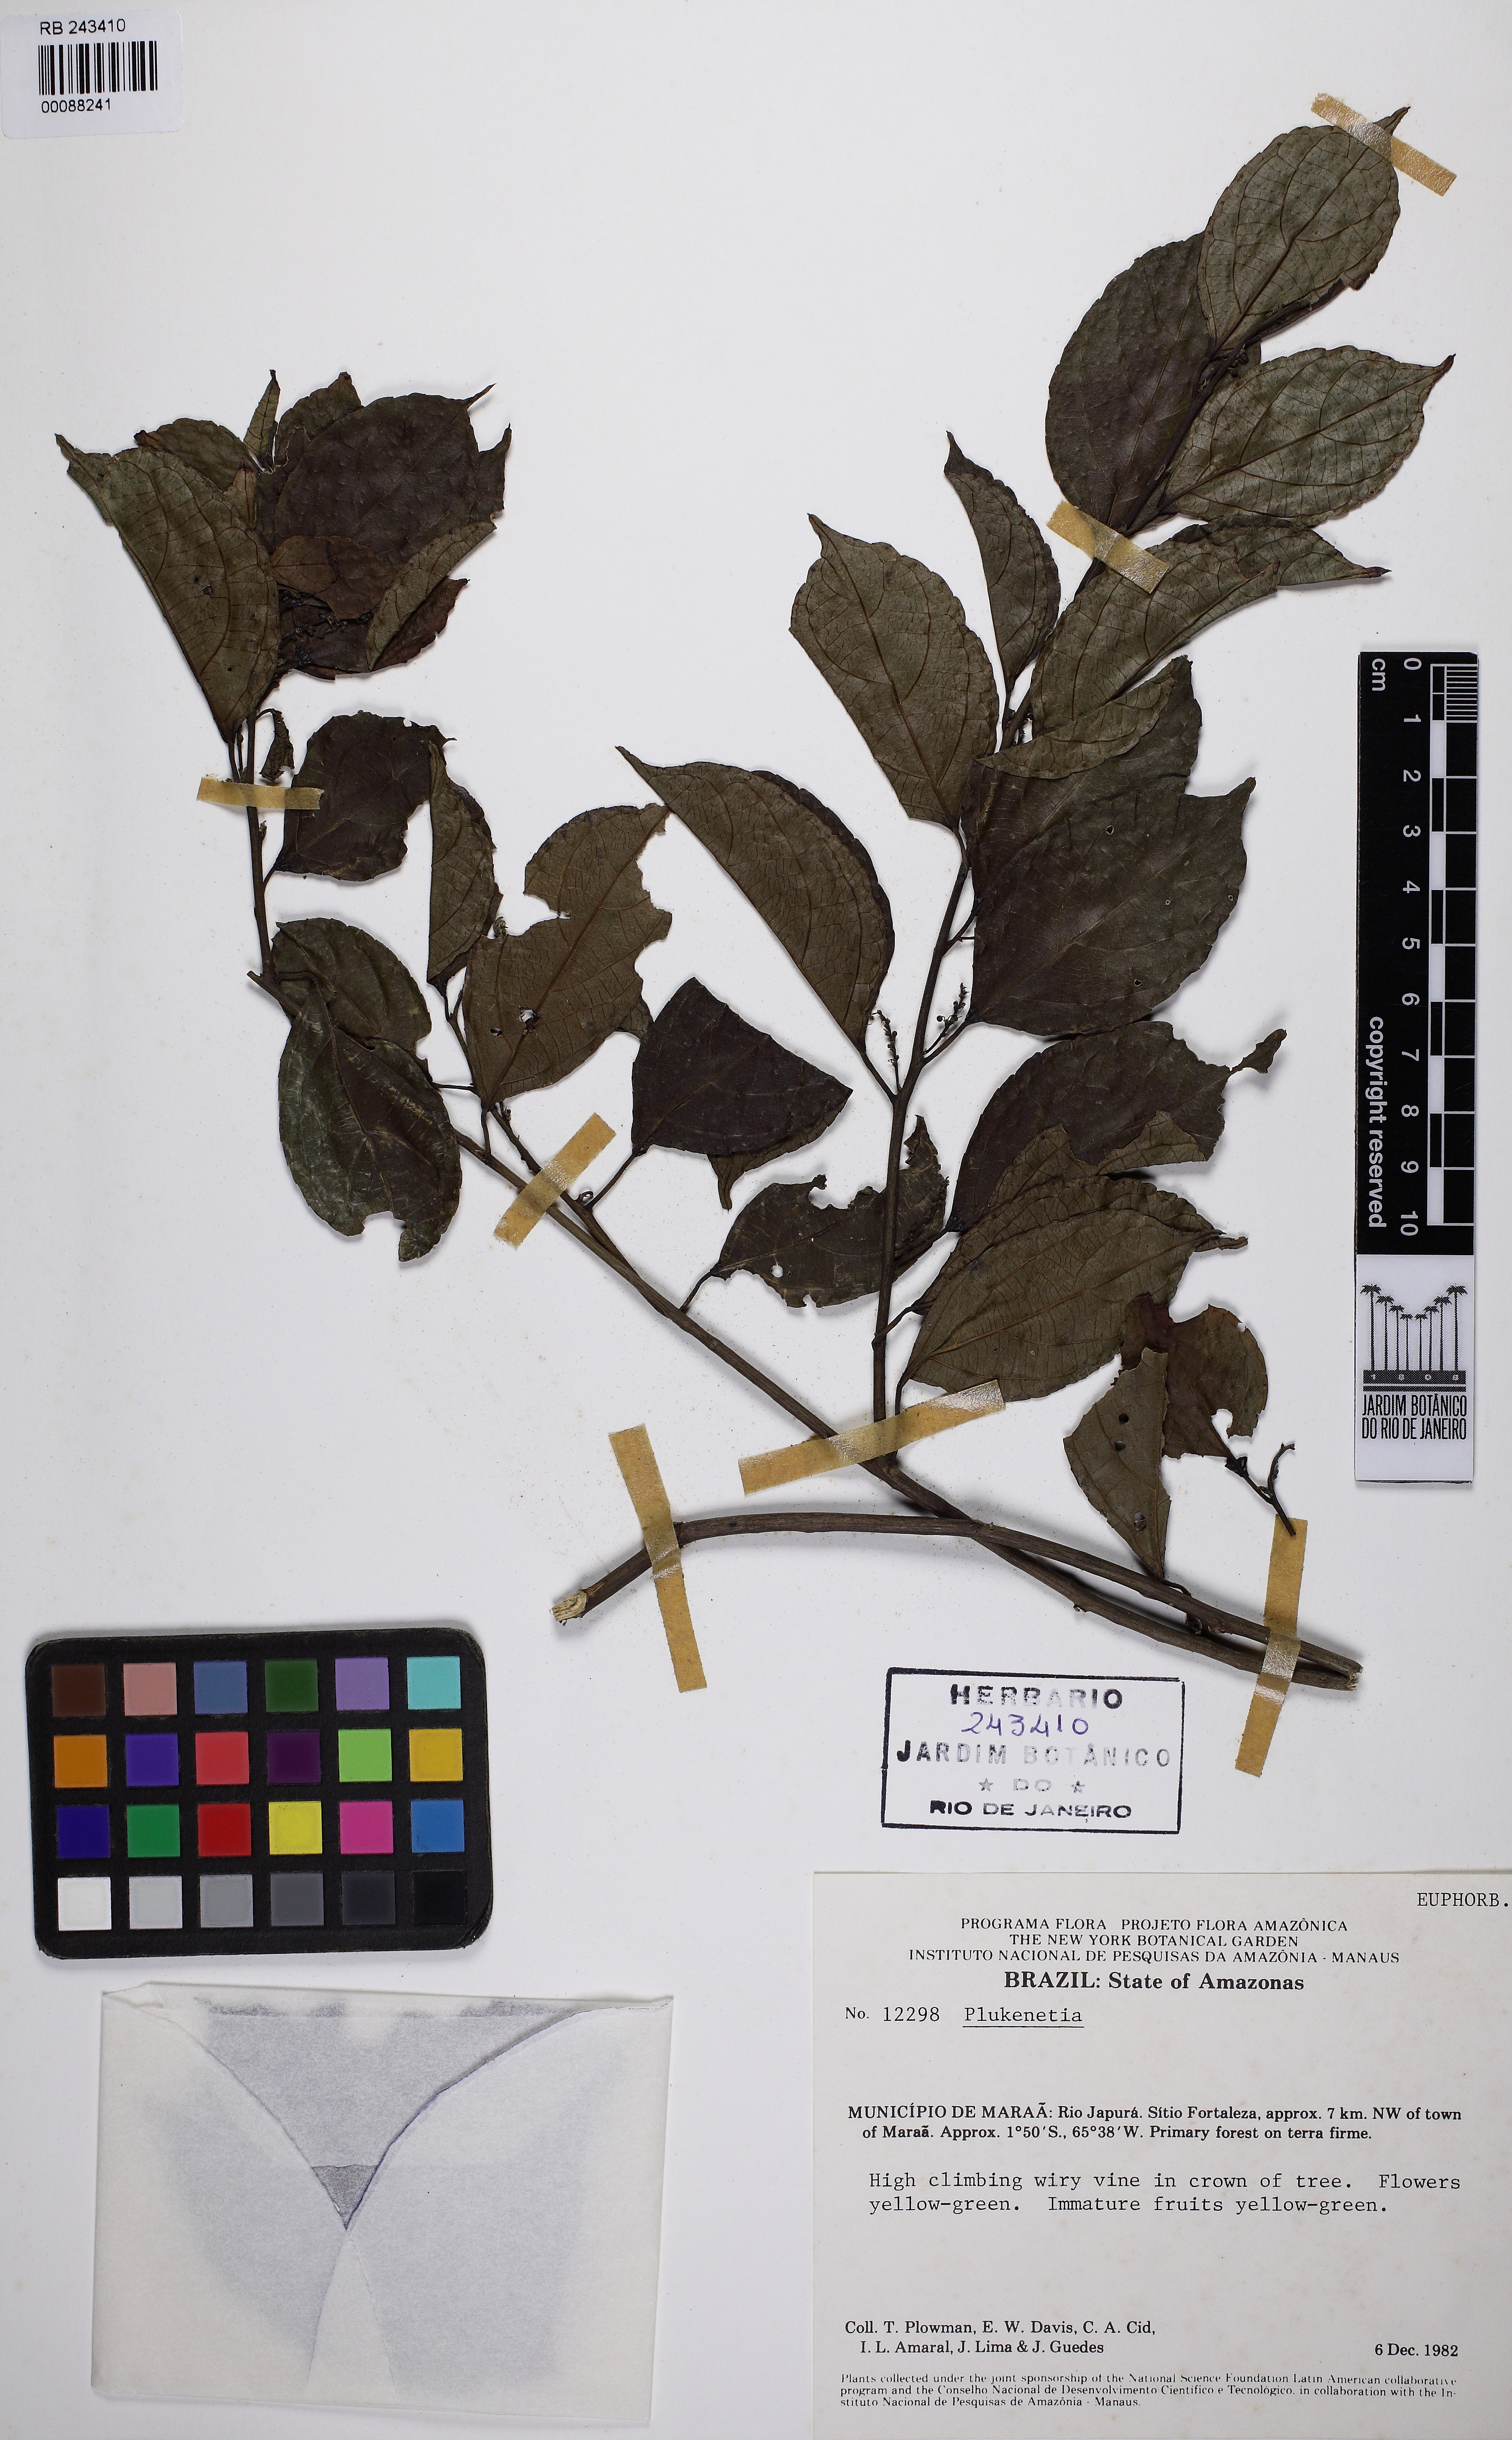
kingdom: Plantae
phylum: Tracheophyta
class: Magnoliopsida
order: Malpighiales
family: Euphorbiaceae
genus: Plukenetia
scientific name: Plukenetia loretensis
